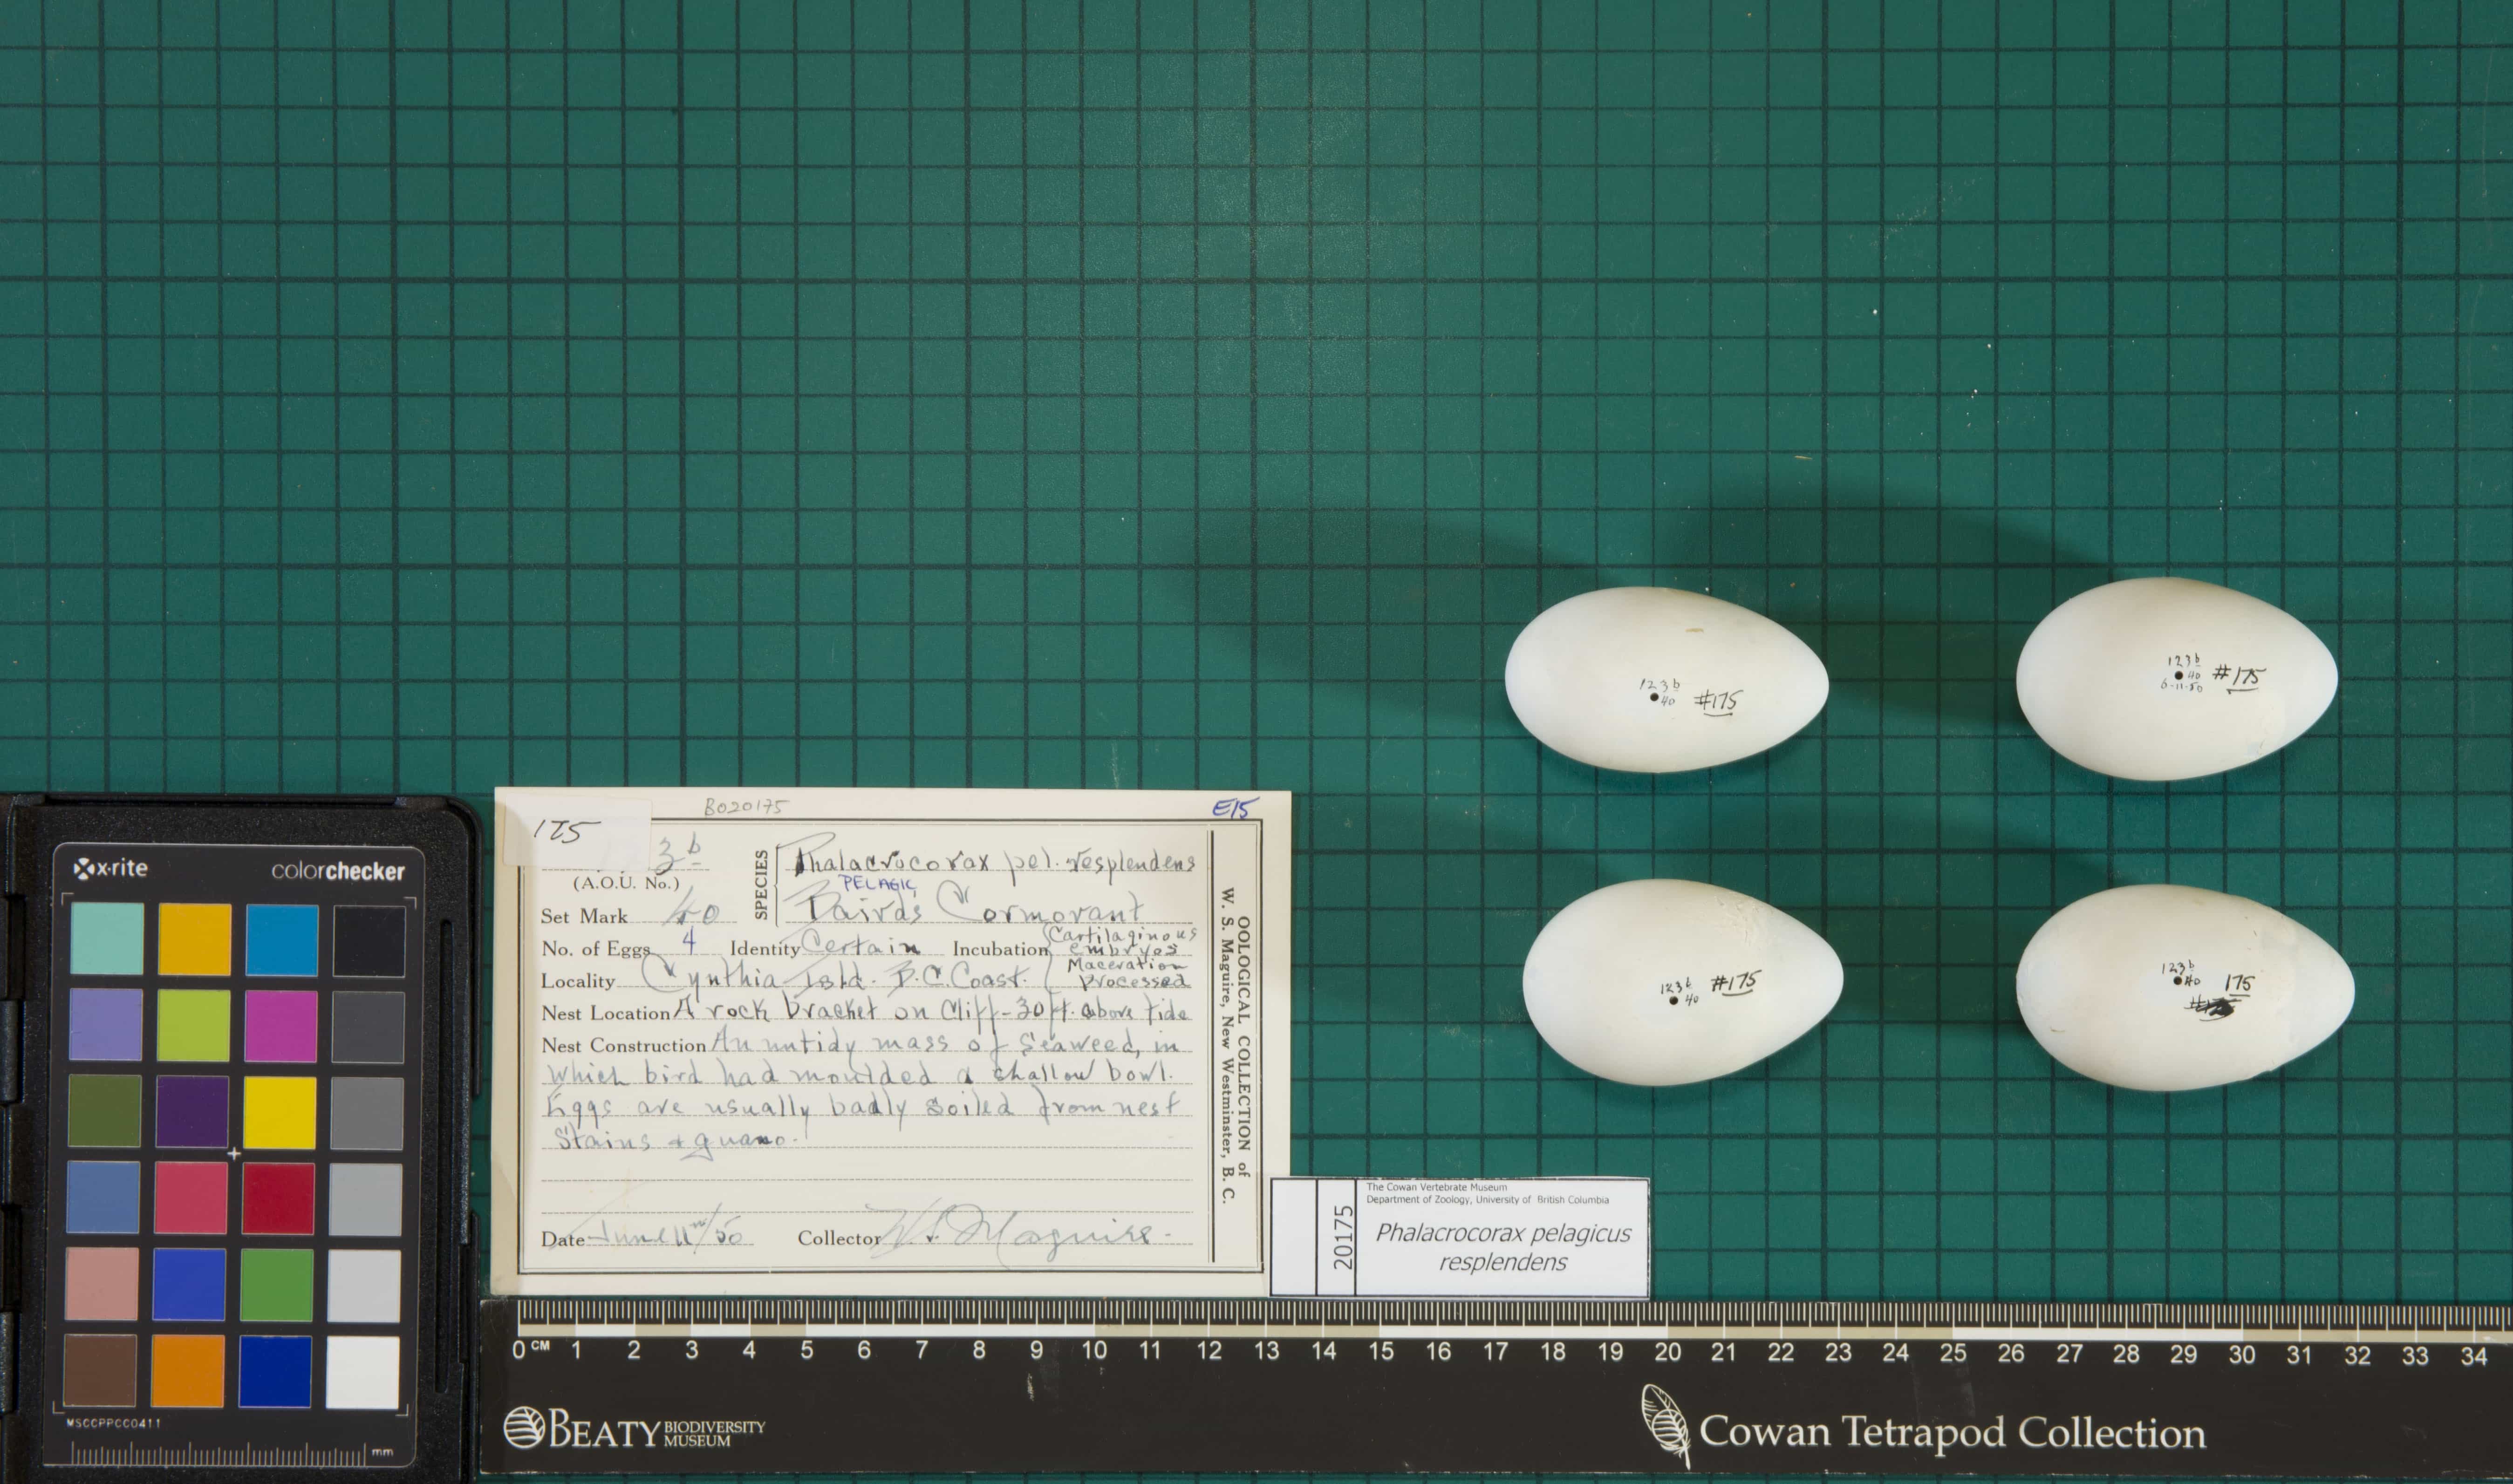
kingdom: Animalia
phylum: Chordata
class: Aves
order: Suliformes
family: Phalacrocoracidae
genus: Phalacrocorax
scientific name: Phalacrocorax pelagicus
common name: Pelagic Cormorant
